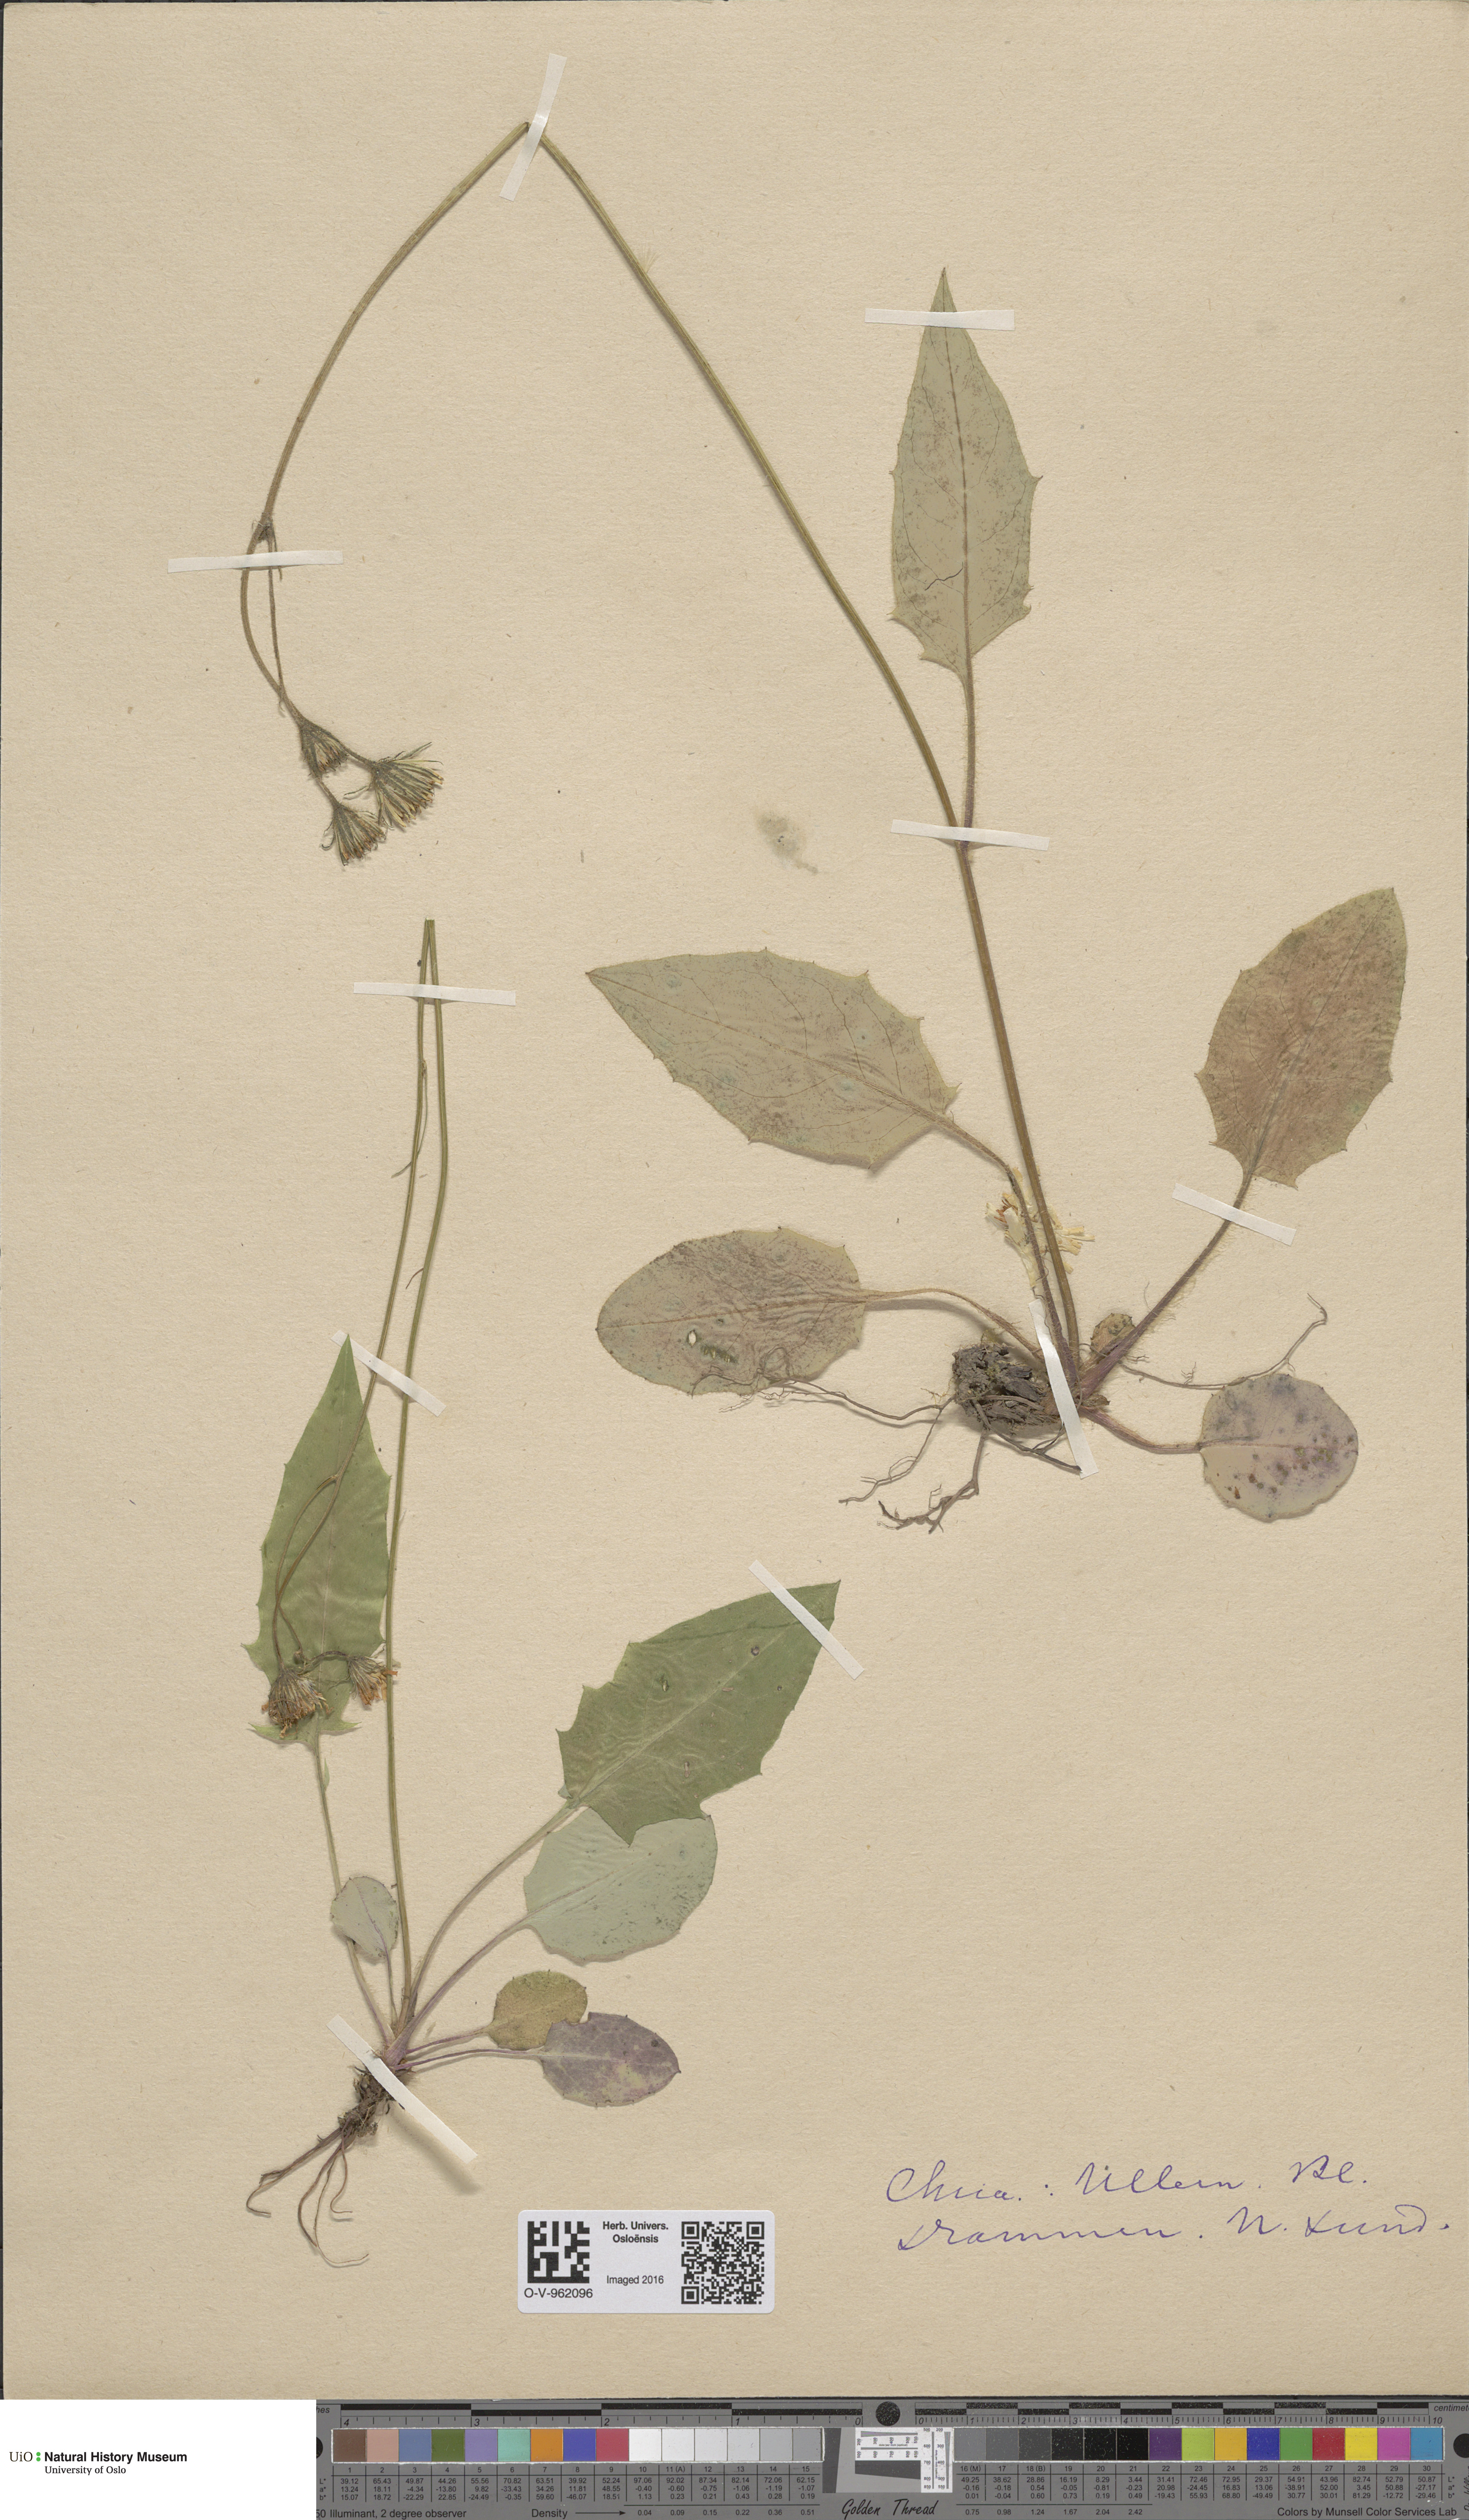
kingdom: Plantae
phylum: Tracheophyta
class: Magnoliopsida
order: Asterales
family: Asteraceae
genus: Hieracium
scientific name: Hieracium
